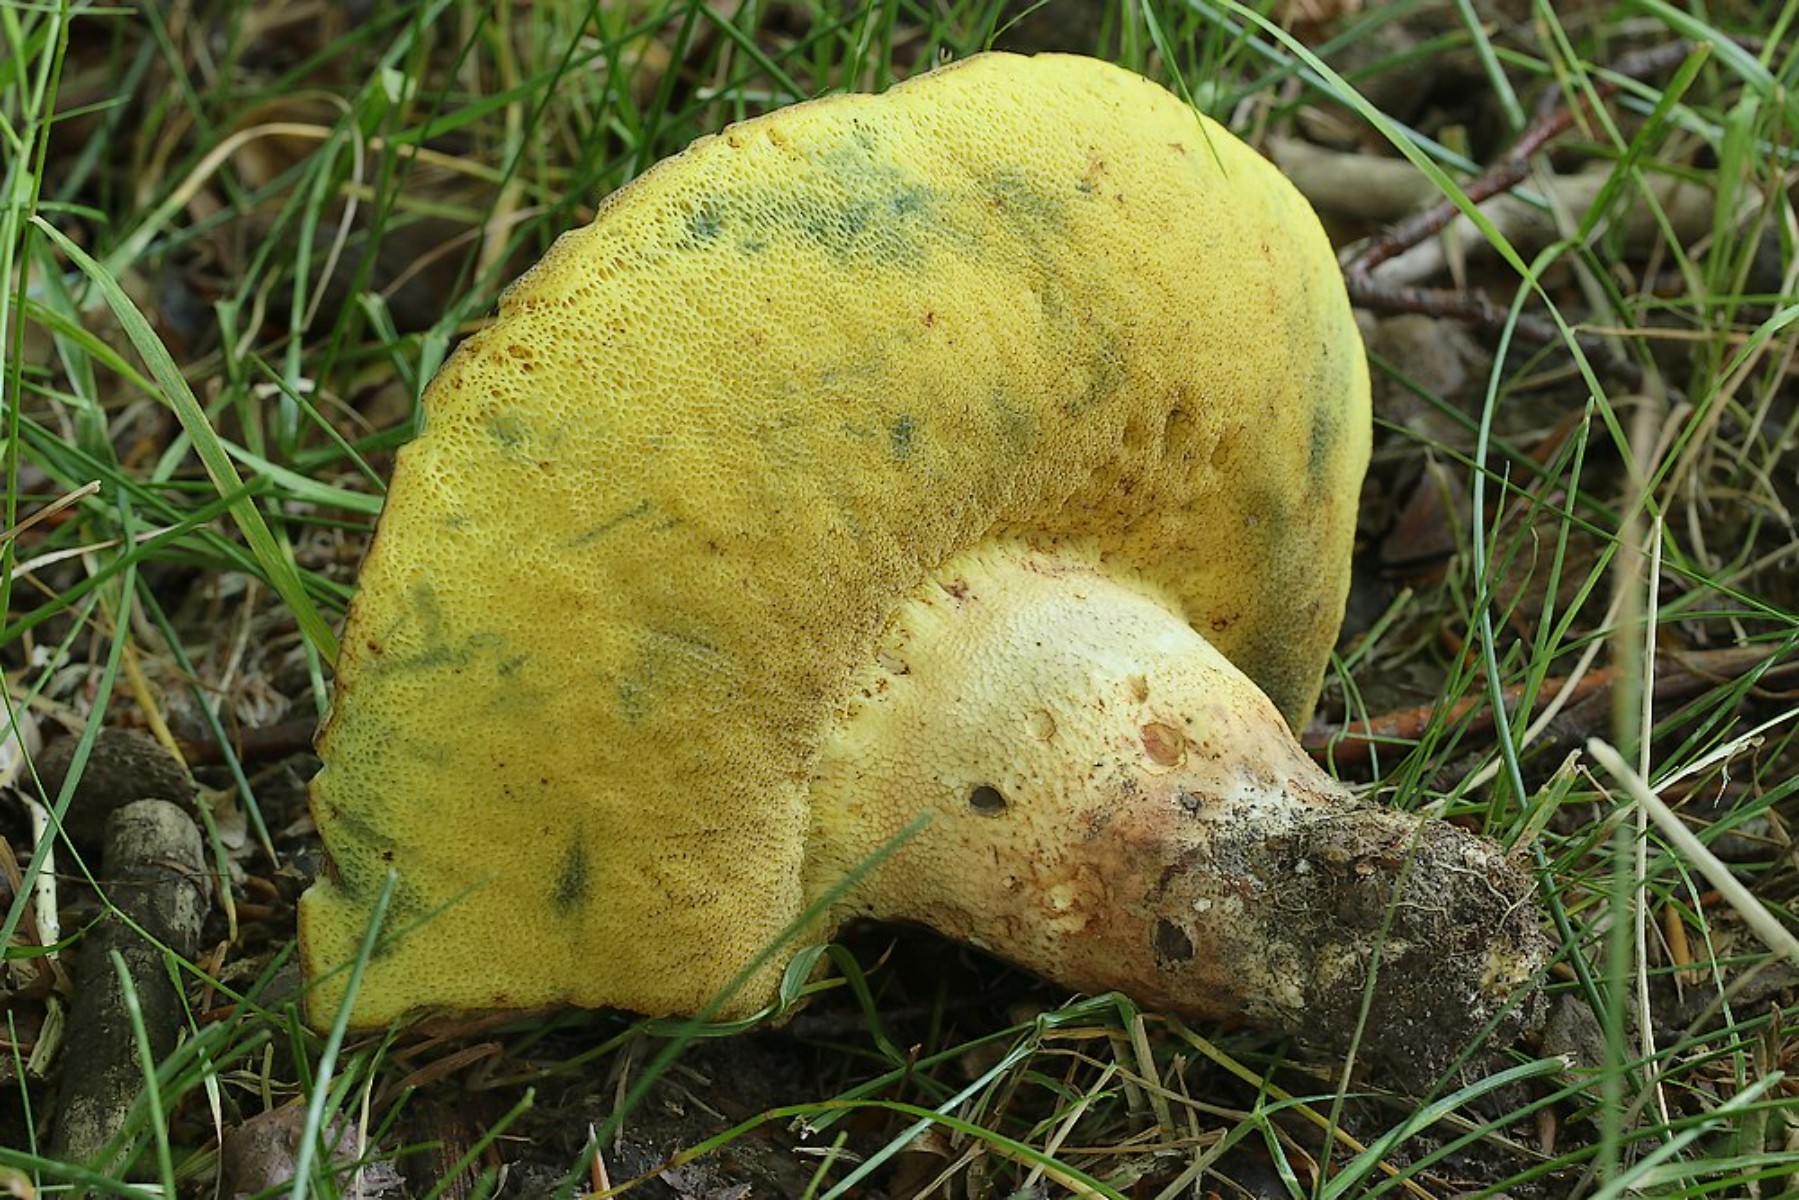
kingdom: Fungi
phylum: Basidiomycota
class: Agaricomycetes
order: Boletales
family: Boletaceae
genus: Butyriboletus
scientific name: Butyriboletus appendiculatus
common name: tenstokket rørhat
